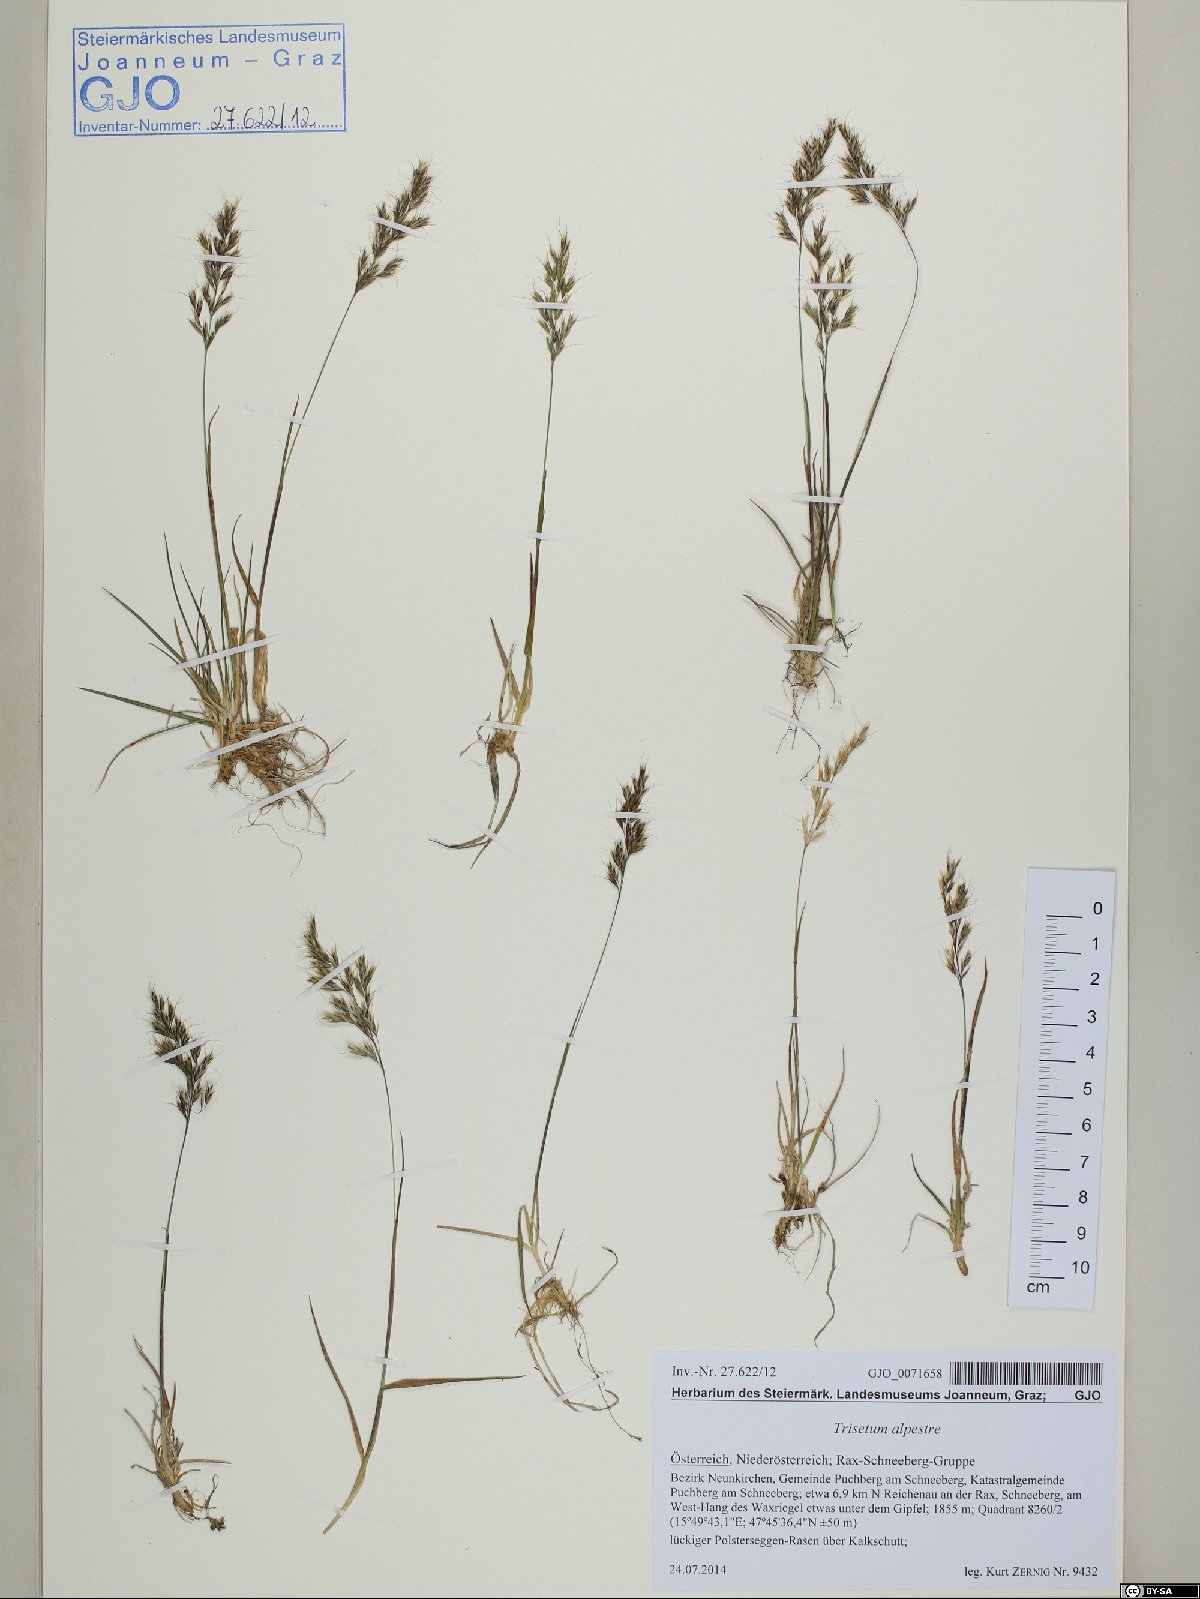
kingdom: Plantae
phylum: Tracheophyta
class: Liliopsida
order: Poales
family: Poaceae
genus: Trisetum
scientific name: Trisetum alpestre
